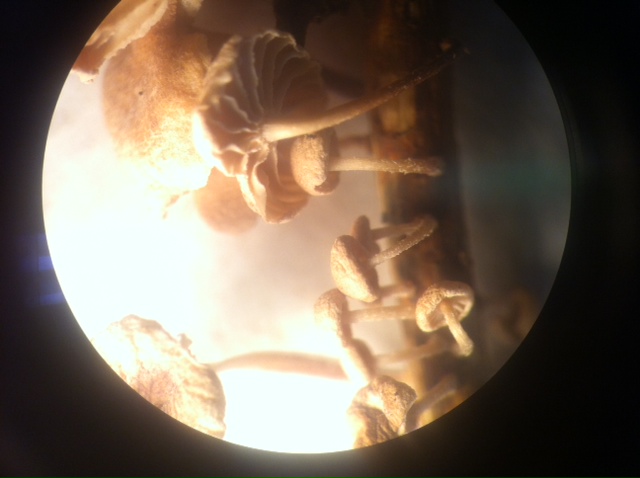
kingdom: Fungi
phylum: Basidiomycota
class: Agaricomycetes
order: Agaricales
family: Omphalotaceae
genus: Collybiopsis
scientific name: Collybiopsis ramealis
